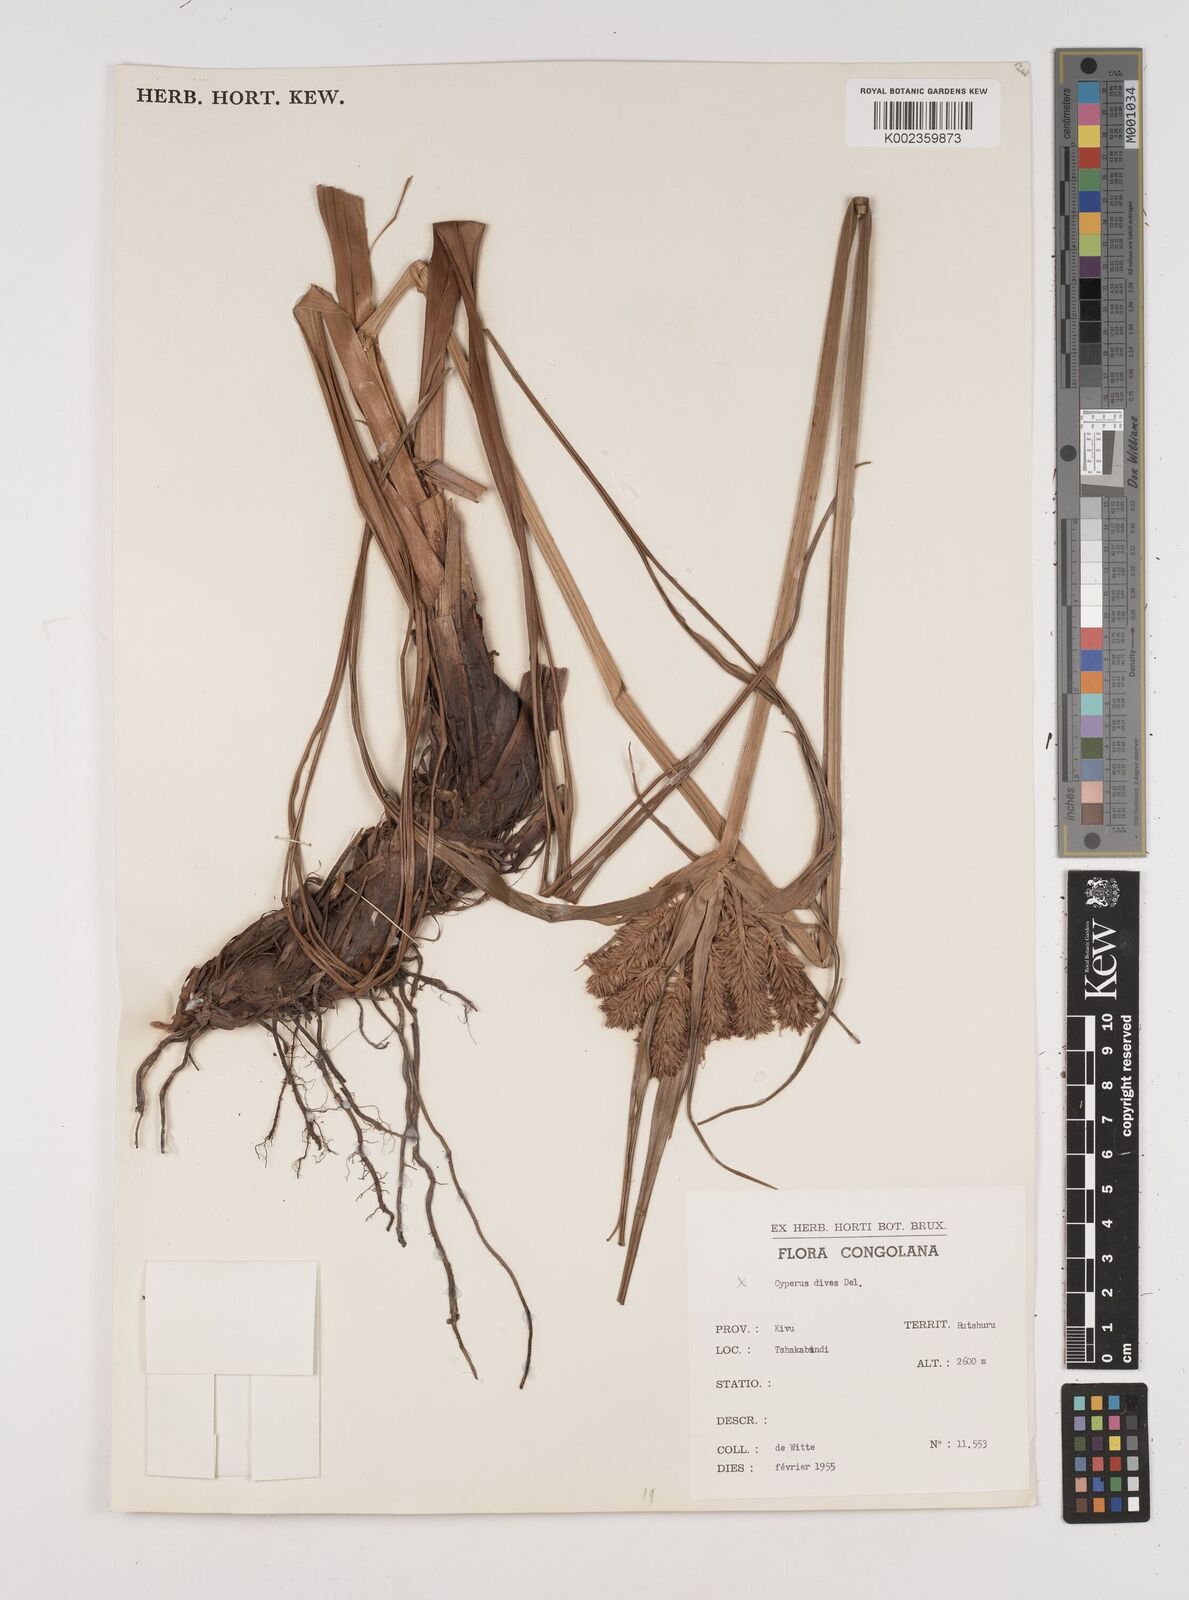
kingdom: Plantae
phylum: Tracheophyta
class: Liliopsida
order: Poales
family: Cyperaceae
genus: Cyperus
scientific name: Cyperus tomaiophyllus
